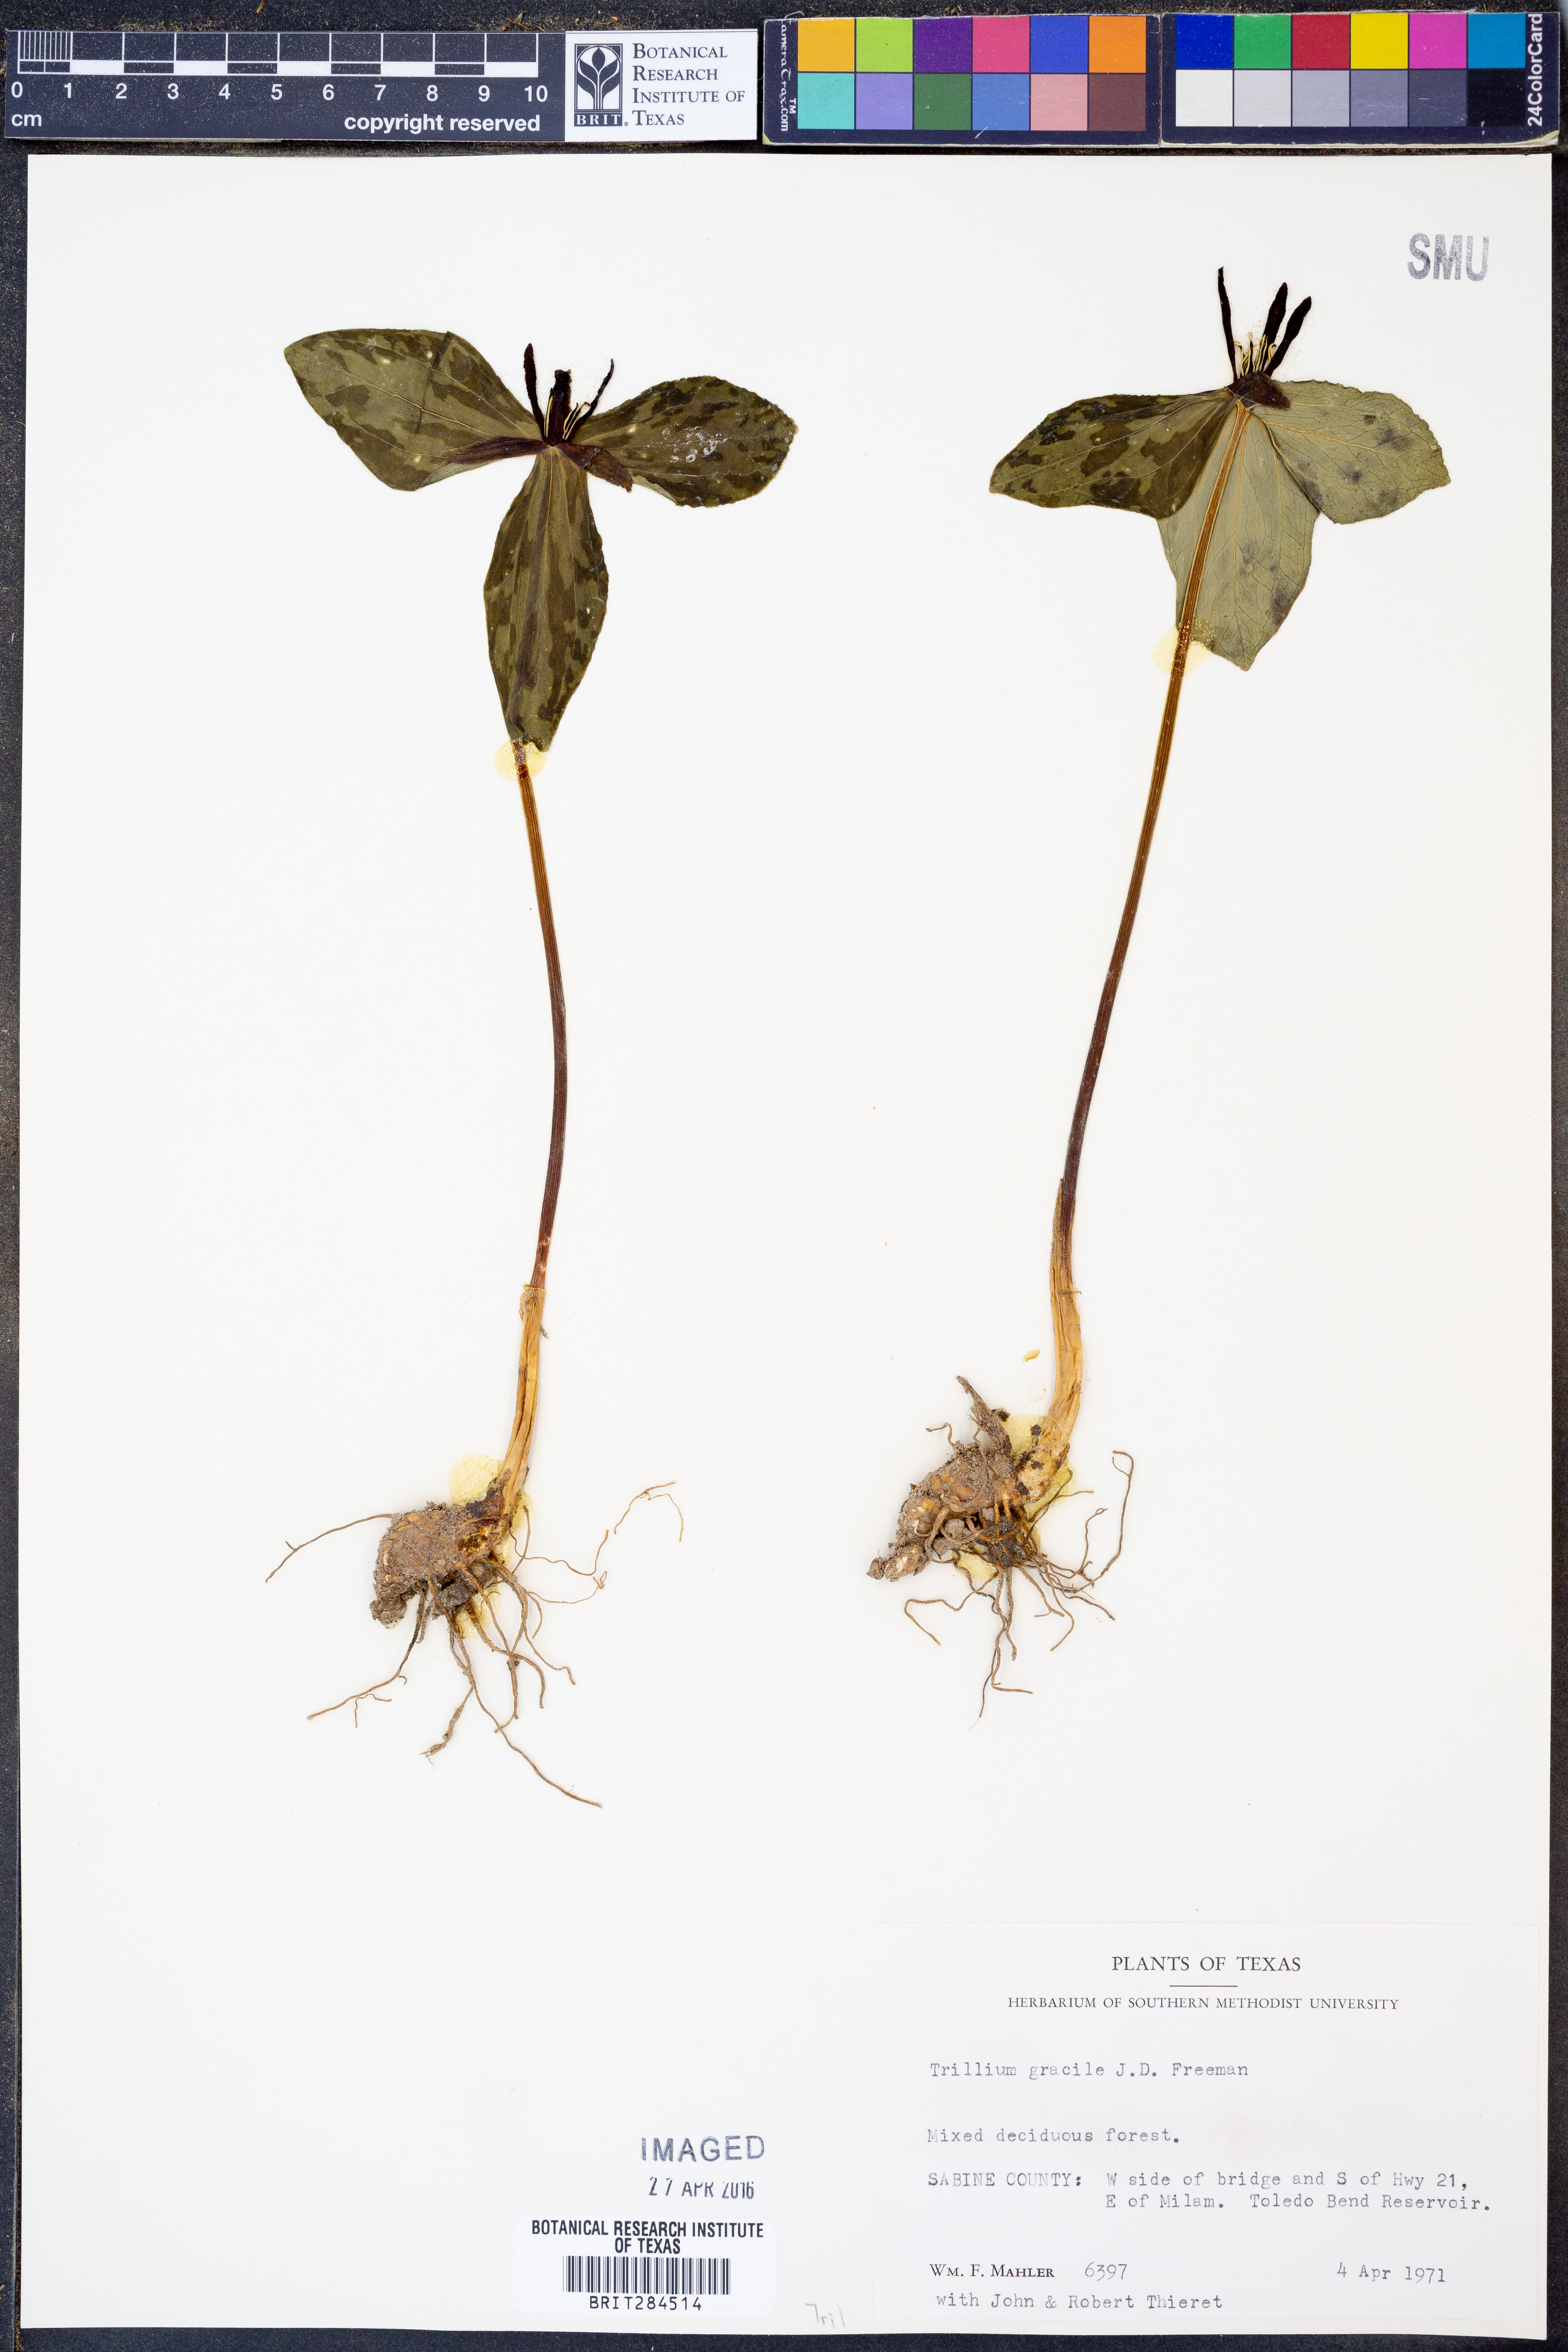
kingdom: Plantae
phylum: Tracheophyta
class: Liliopsida
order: Liliales
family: Melanthiaceae
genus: Trillium
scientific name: Trillium gracile
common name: Graceful trillium
